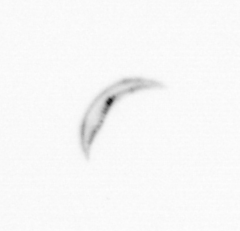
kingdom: Chromista
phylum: Ochrophyta
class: Bacillariophyceae
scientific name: Bacillariophyceae
